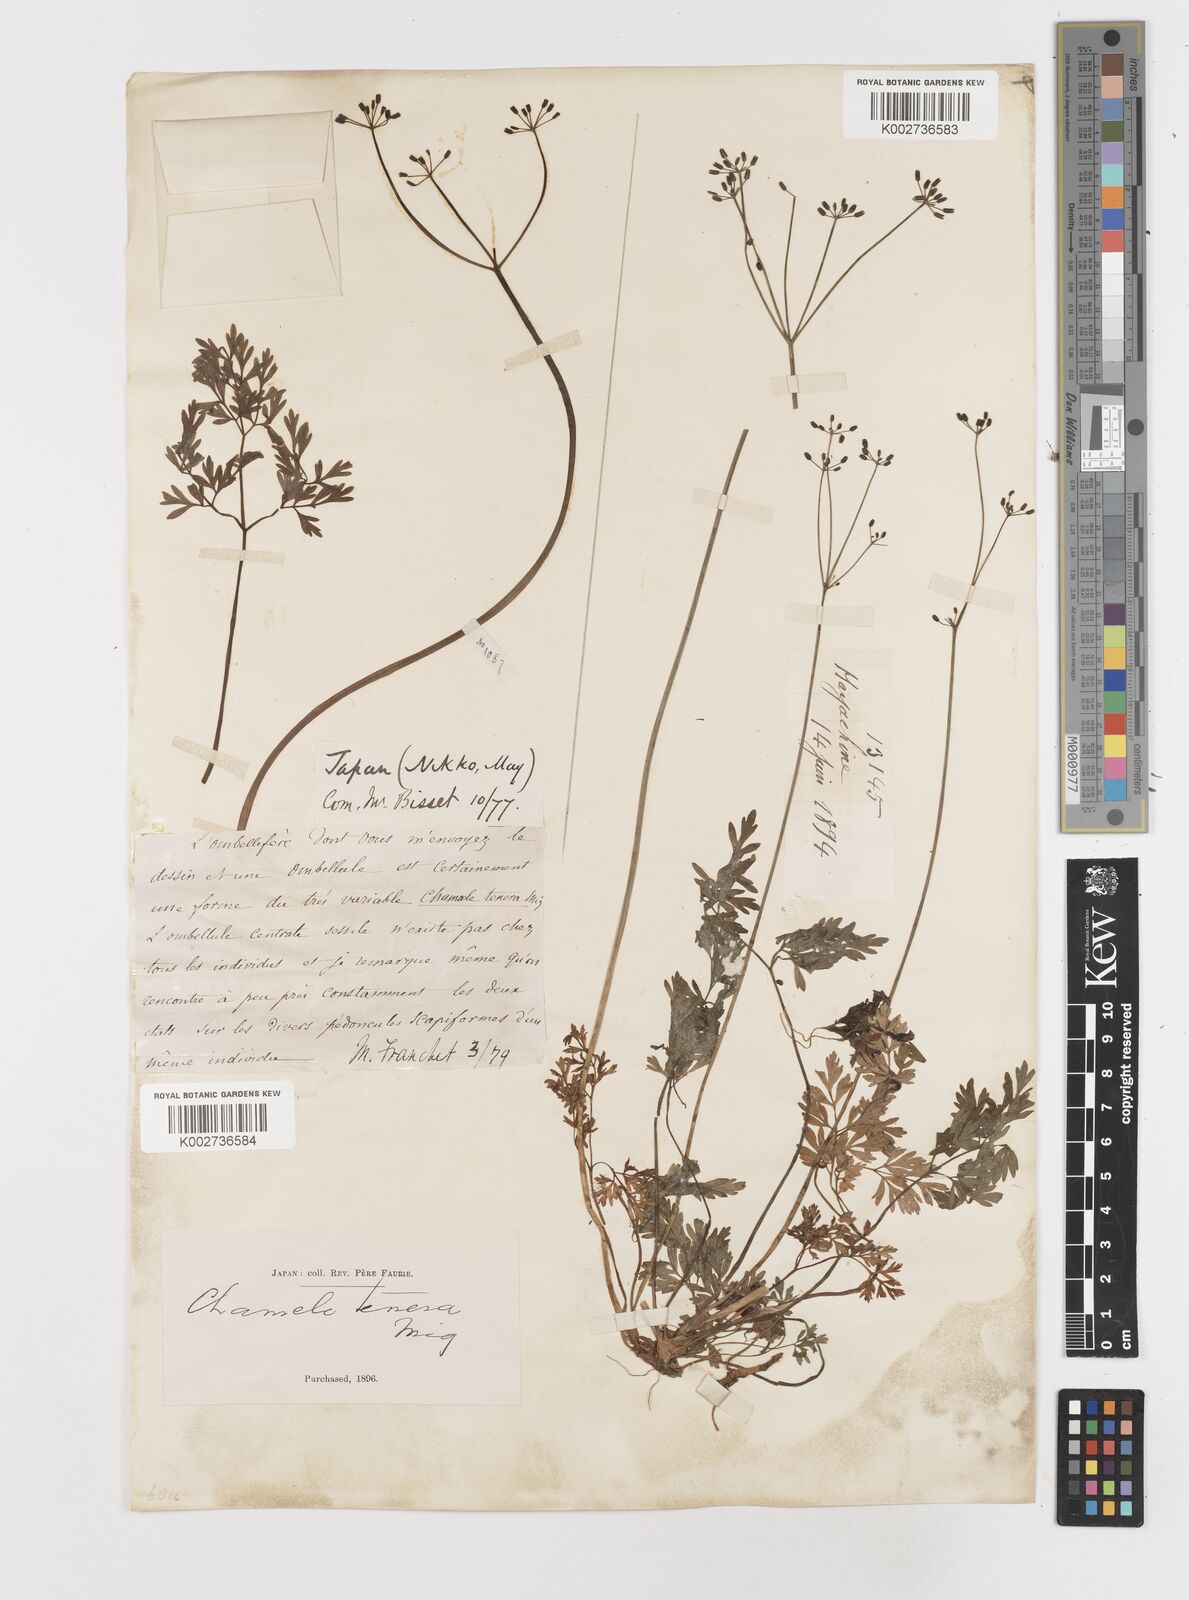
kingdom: Plantae
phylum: Tracheophyta
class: Magnoliopsida
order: Apiales
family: Apiaceae
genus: Aegopodium
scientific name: Aegopodium decumbens
